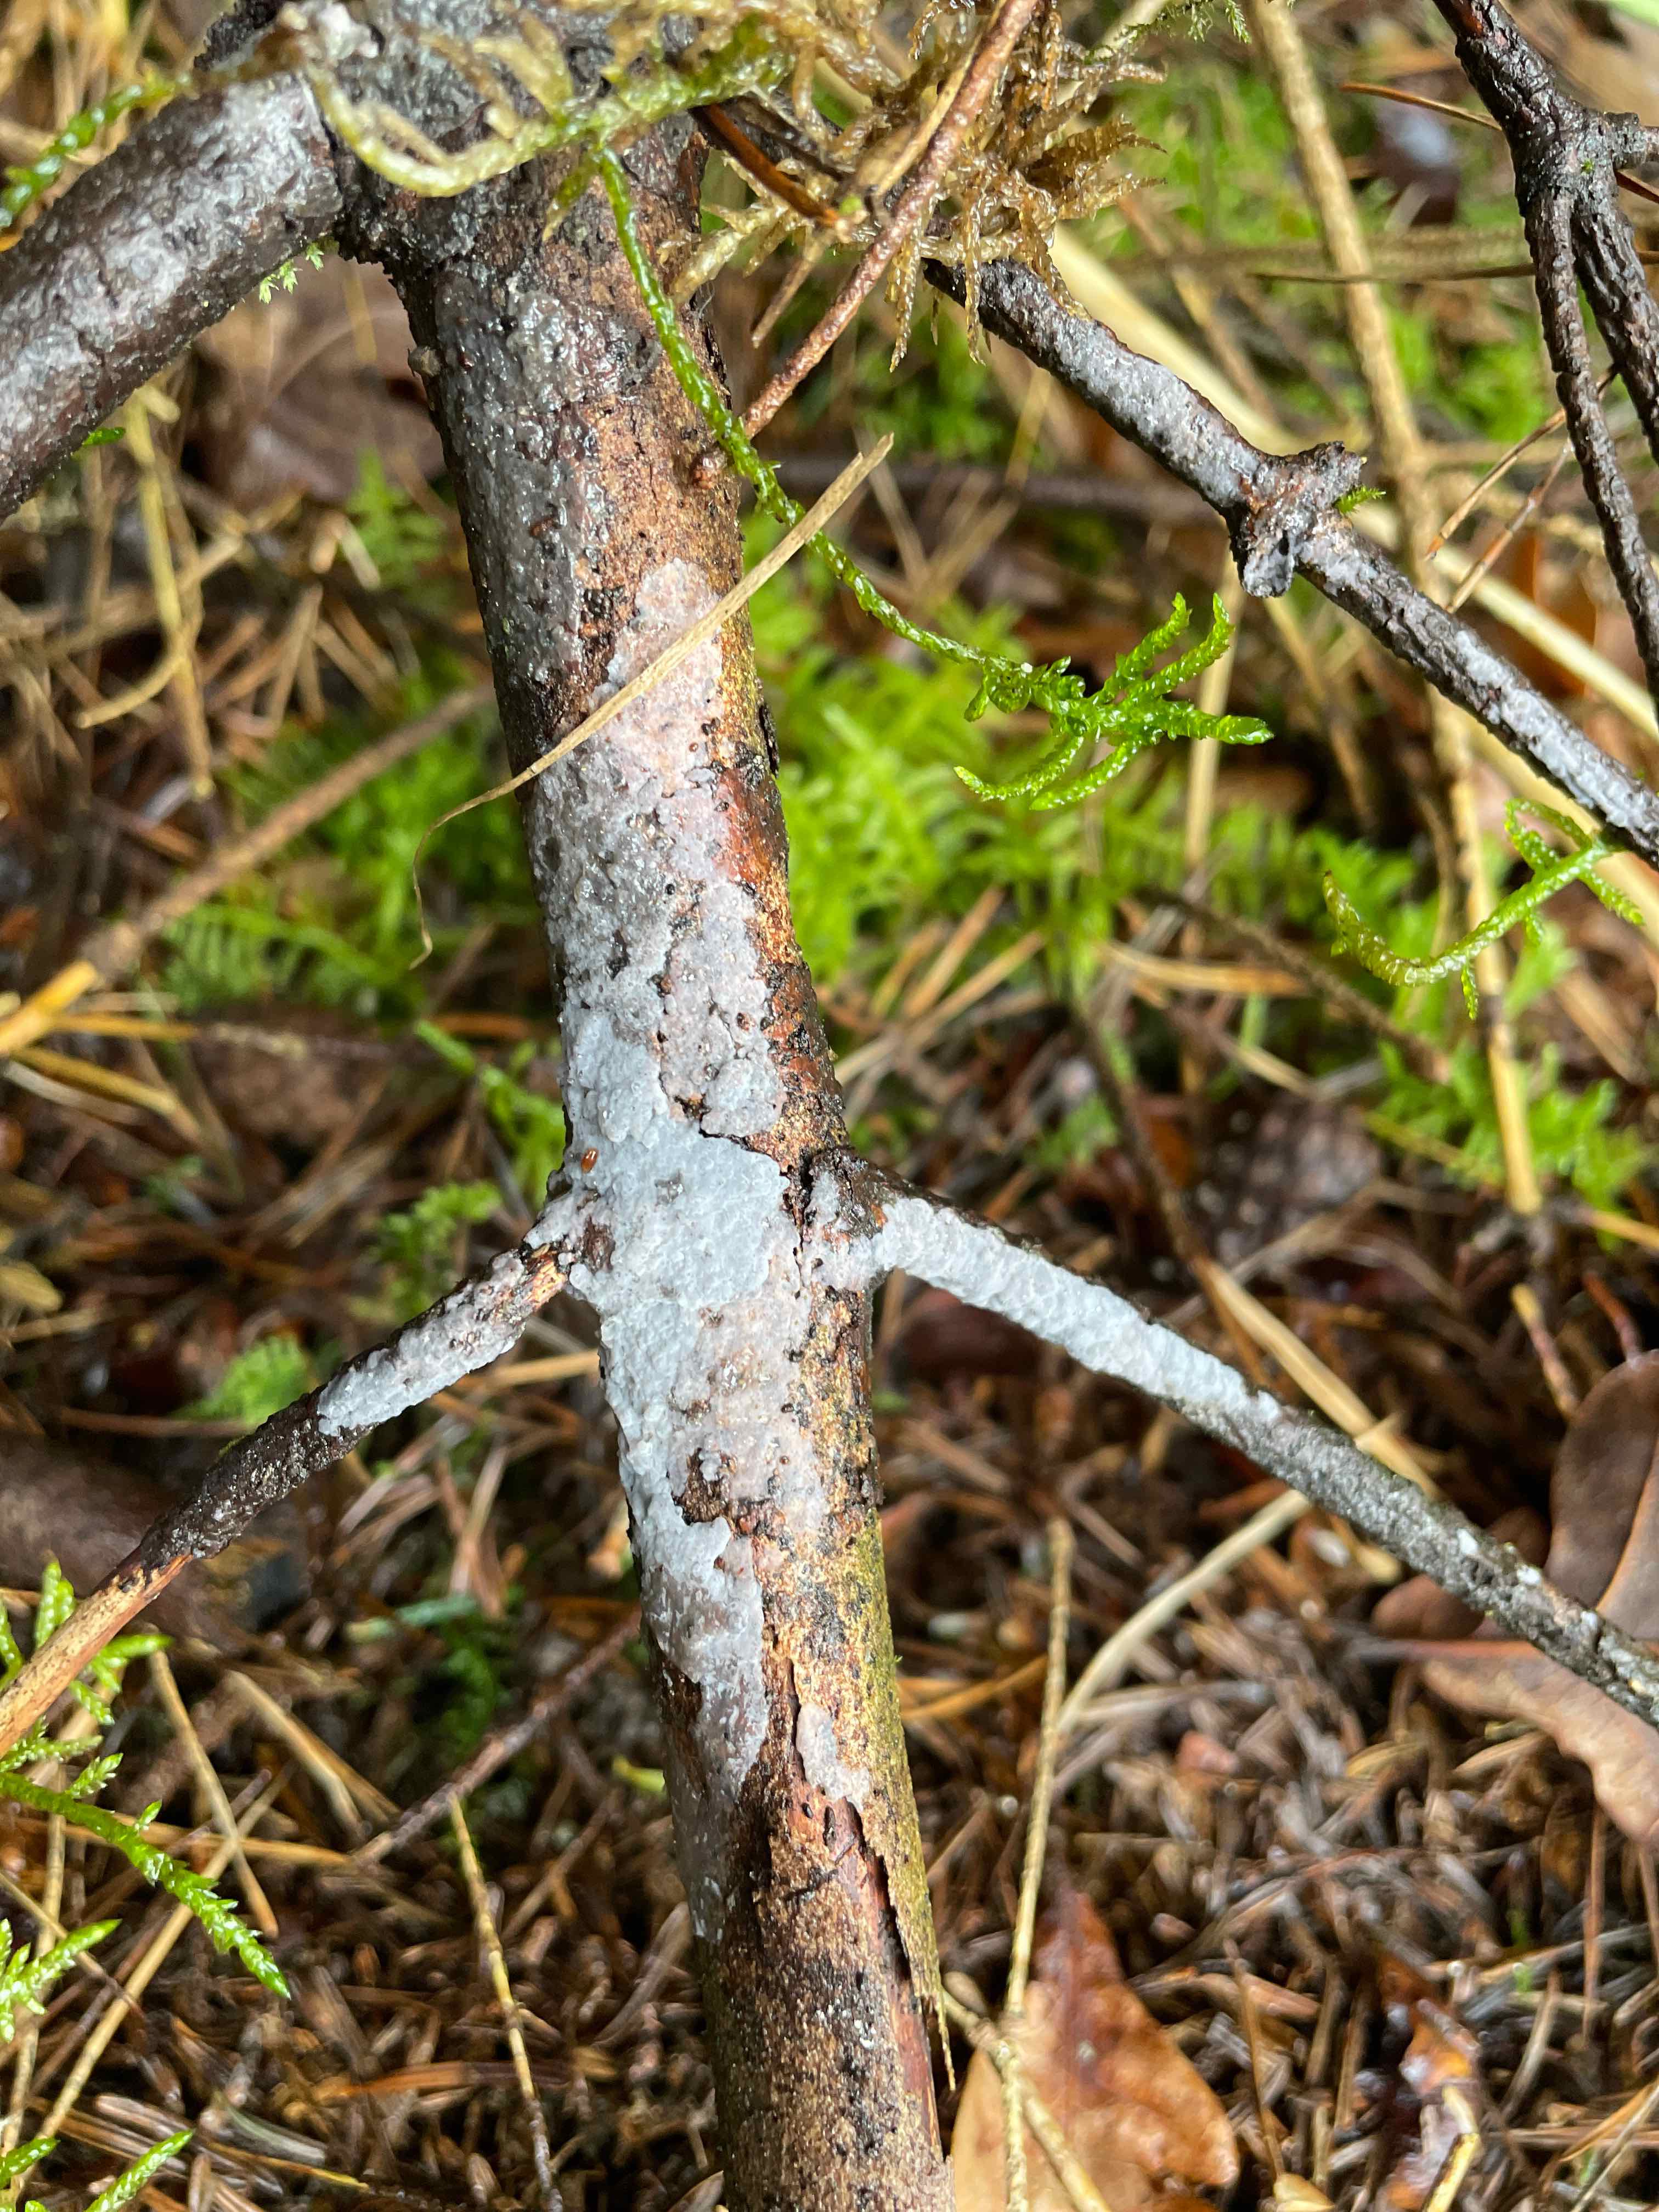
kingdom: Fungi
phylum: Basidiomycota
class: Agaricomycetes
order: Sebacinales
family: Sebacinaceae
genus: Sebacina
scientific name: Sebacina grisea
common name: blågrå bævrehinde
